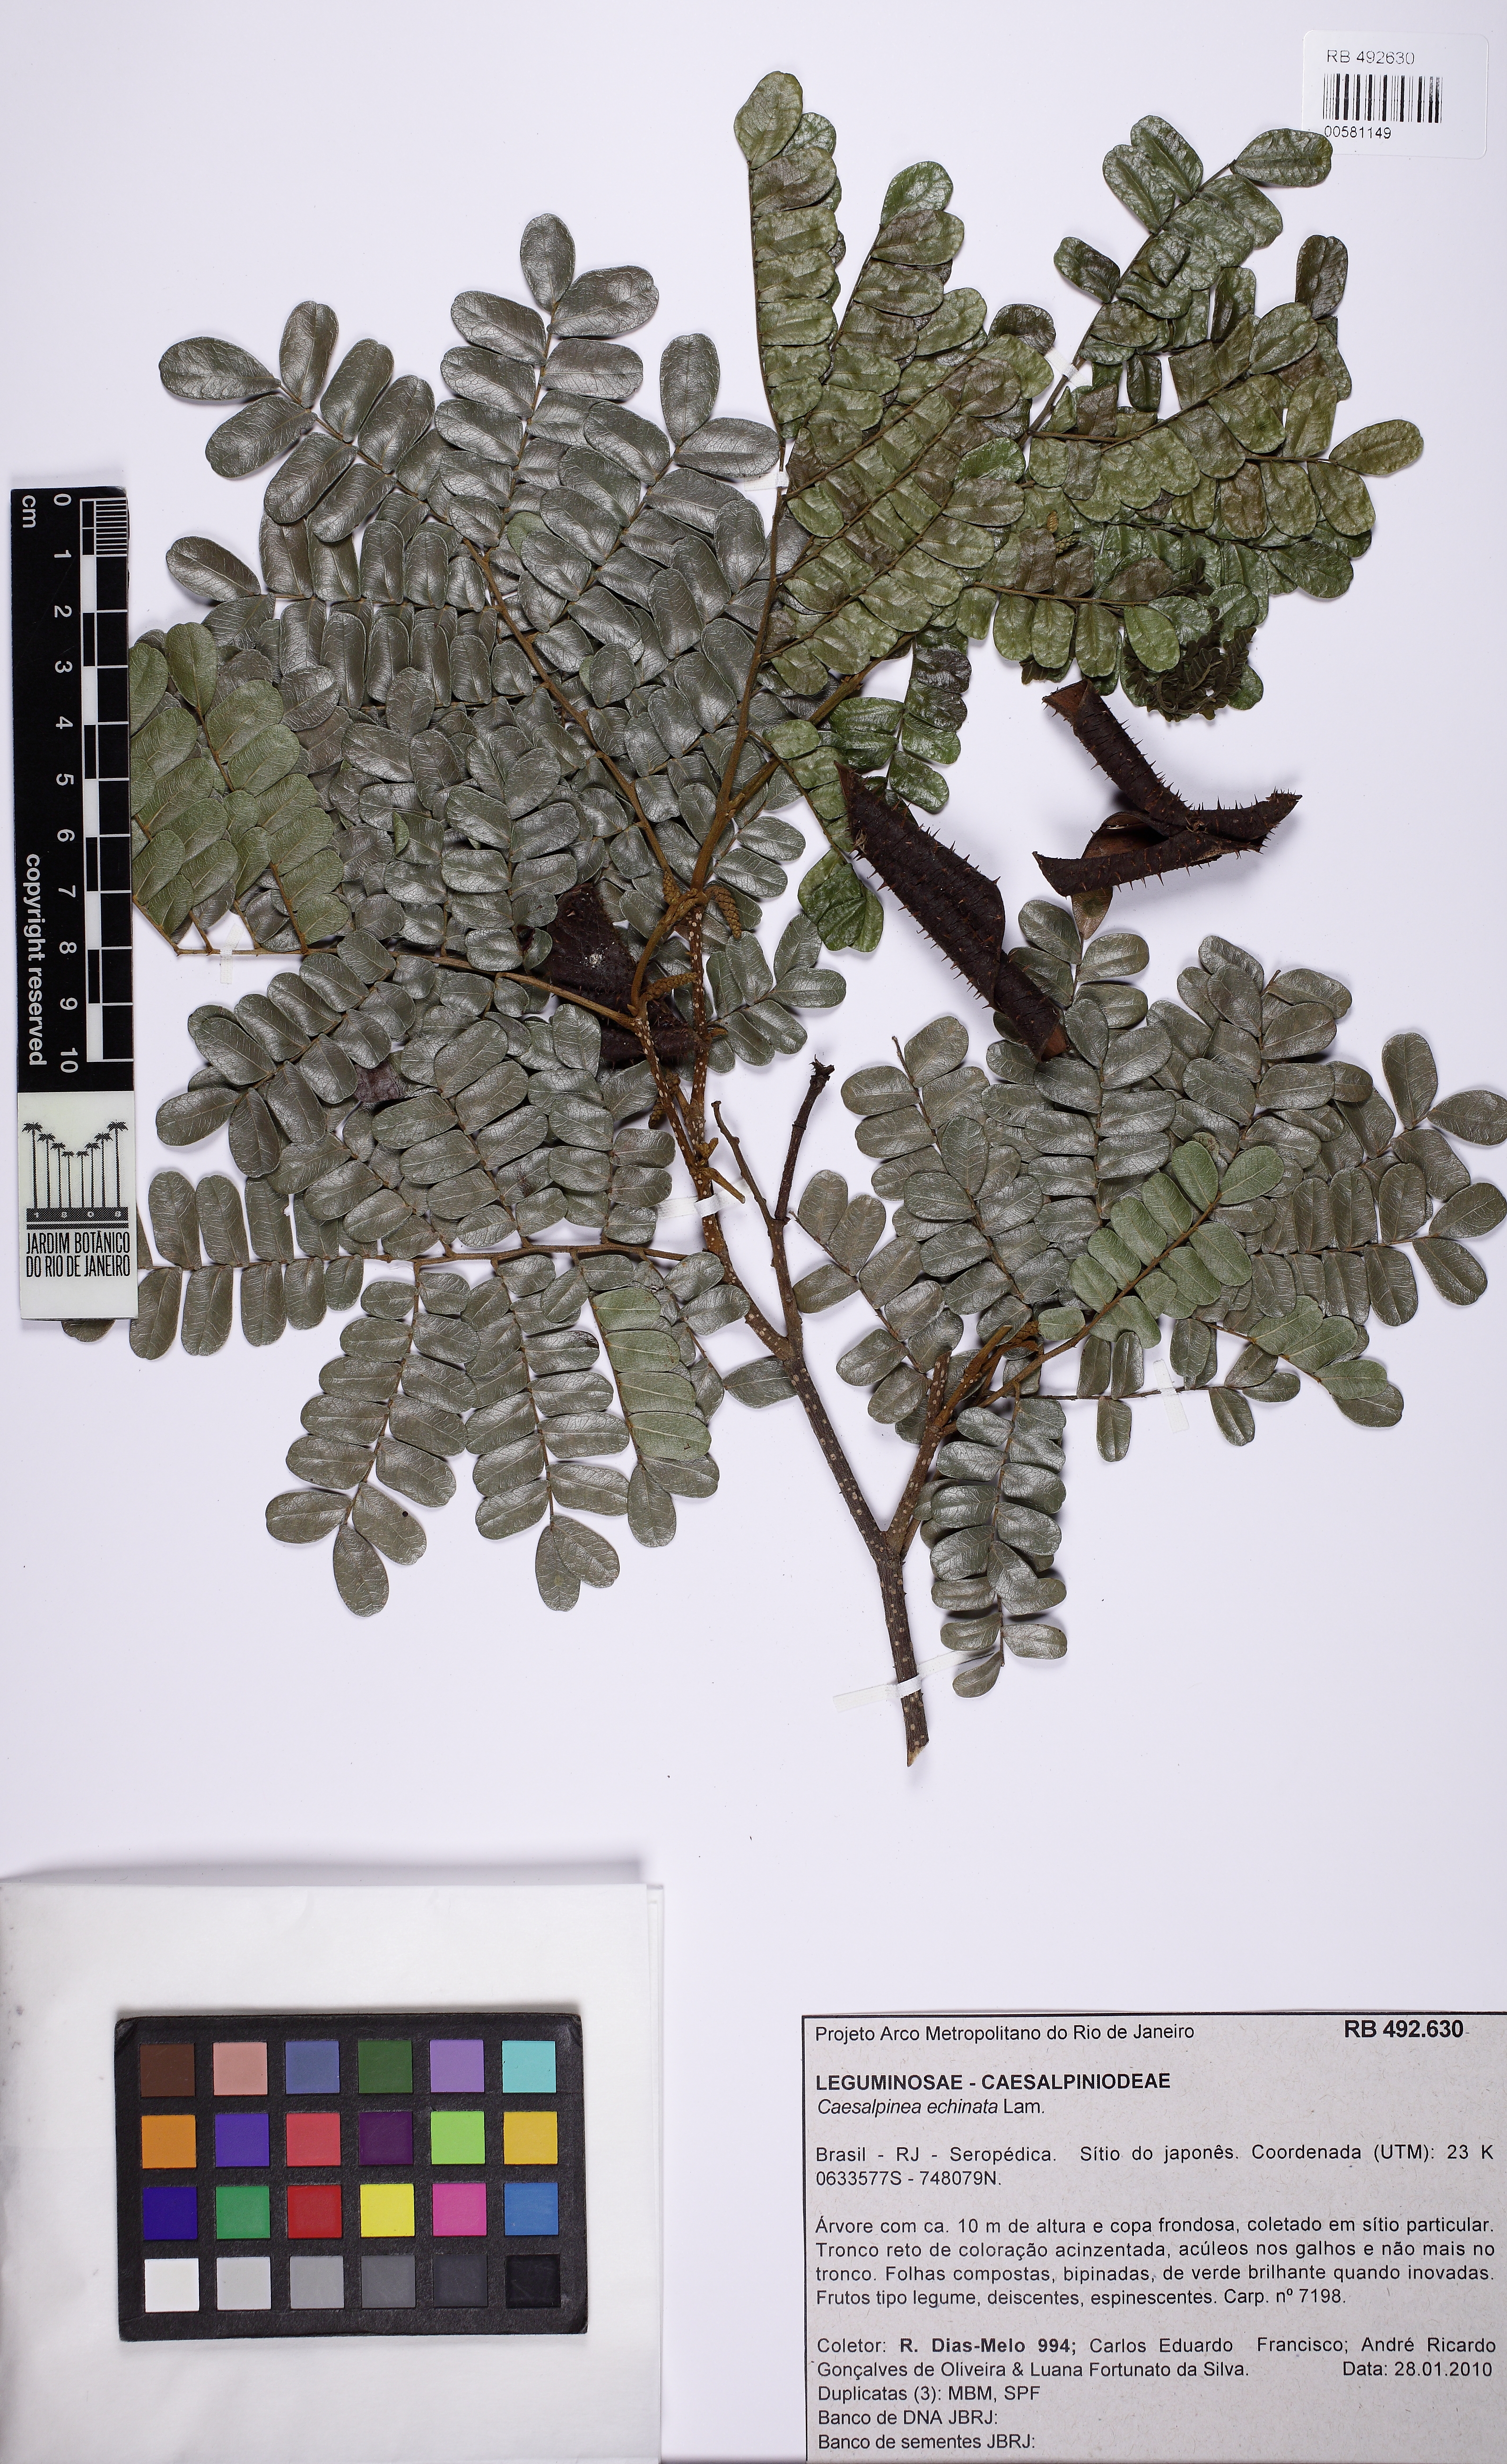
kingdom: Plantae
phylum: Tracheophyta
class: Magnoliopsida
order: Fabales
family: Fabaceae
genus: Paubrasilia
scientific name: Paubrasilia echinata
